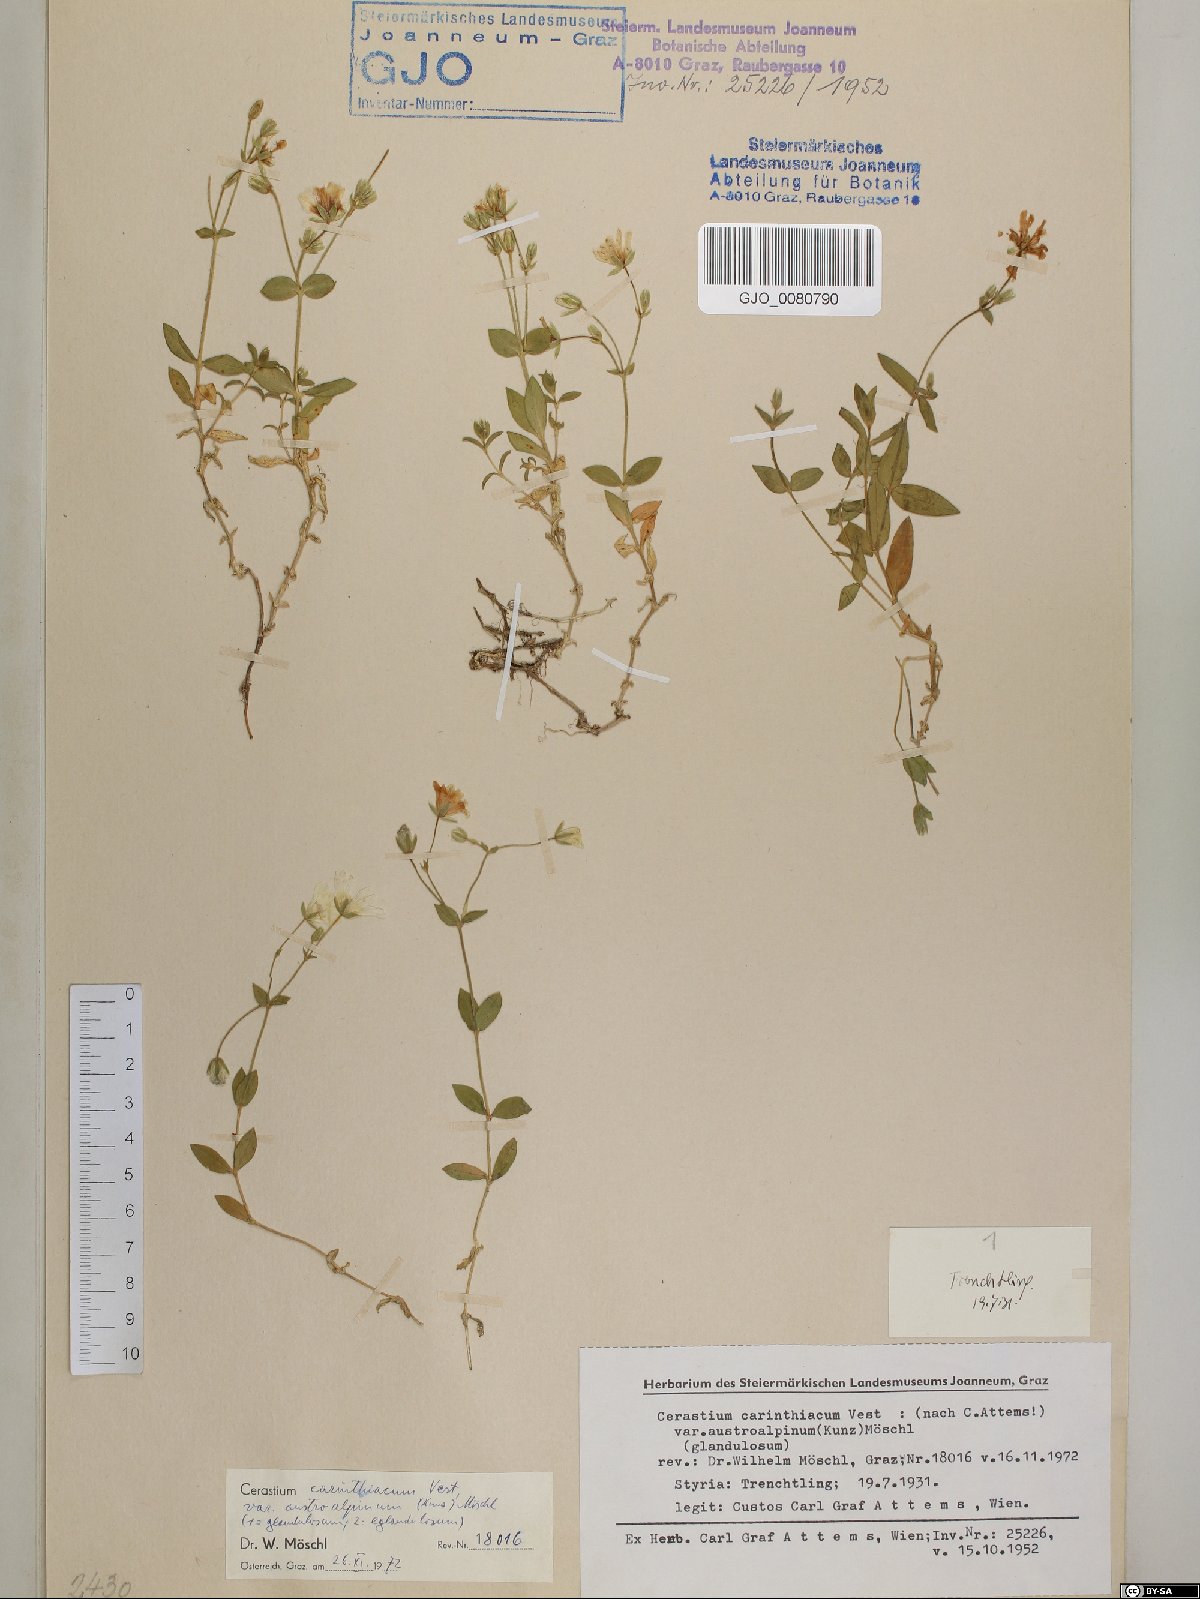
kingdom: Plantae
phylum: Tracheophyta
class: Magnoliopsida
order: Caryophyllales
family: Caryophyllaceae
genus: Cerastium
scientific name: Cerastium carinthiacum
